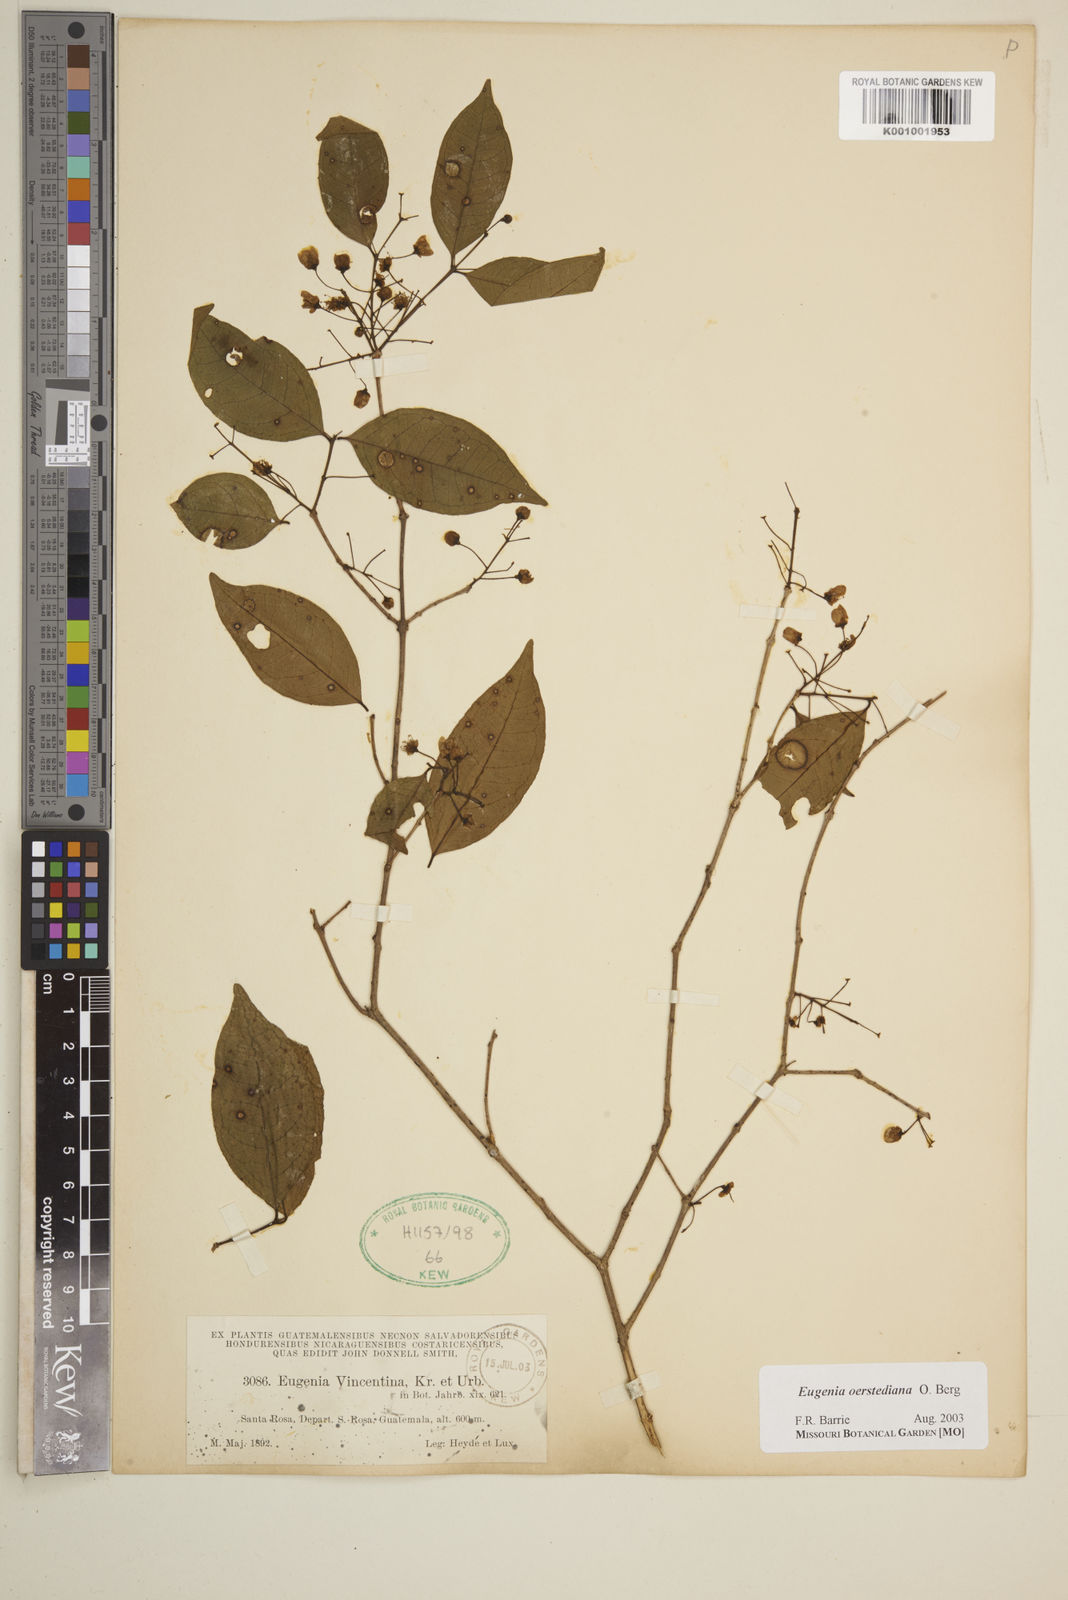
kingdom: Plantae
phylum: Tracheophyta
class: Magnoliopsida
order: Myrtales
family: Myrtaceae
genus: Eugenia
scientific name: Eugenia oerstediana
